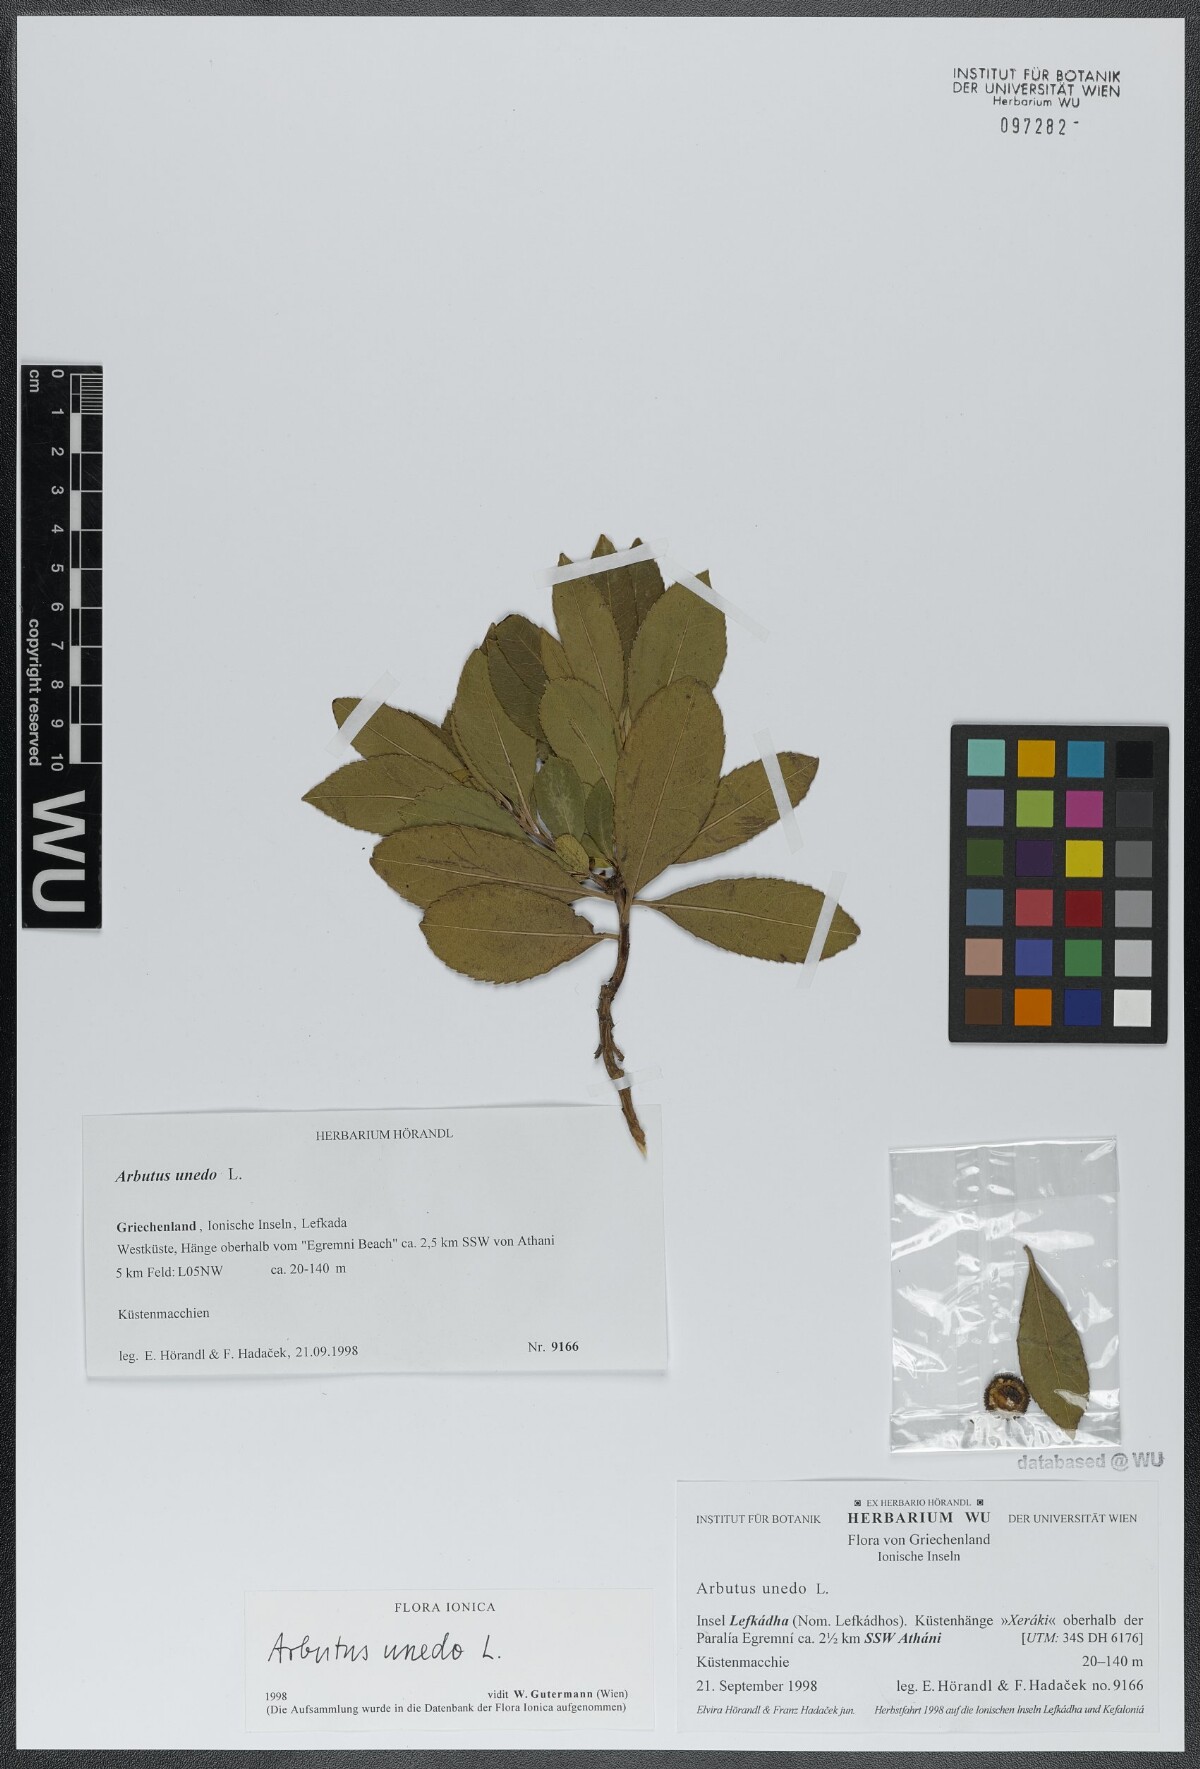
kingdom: Plantae
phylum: Tracheophyta
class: Magnoliopsida
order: Ericales
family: Ericaceae
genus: Arbutus
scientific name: Arbutus unedo
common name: Strawberry-tree
